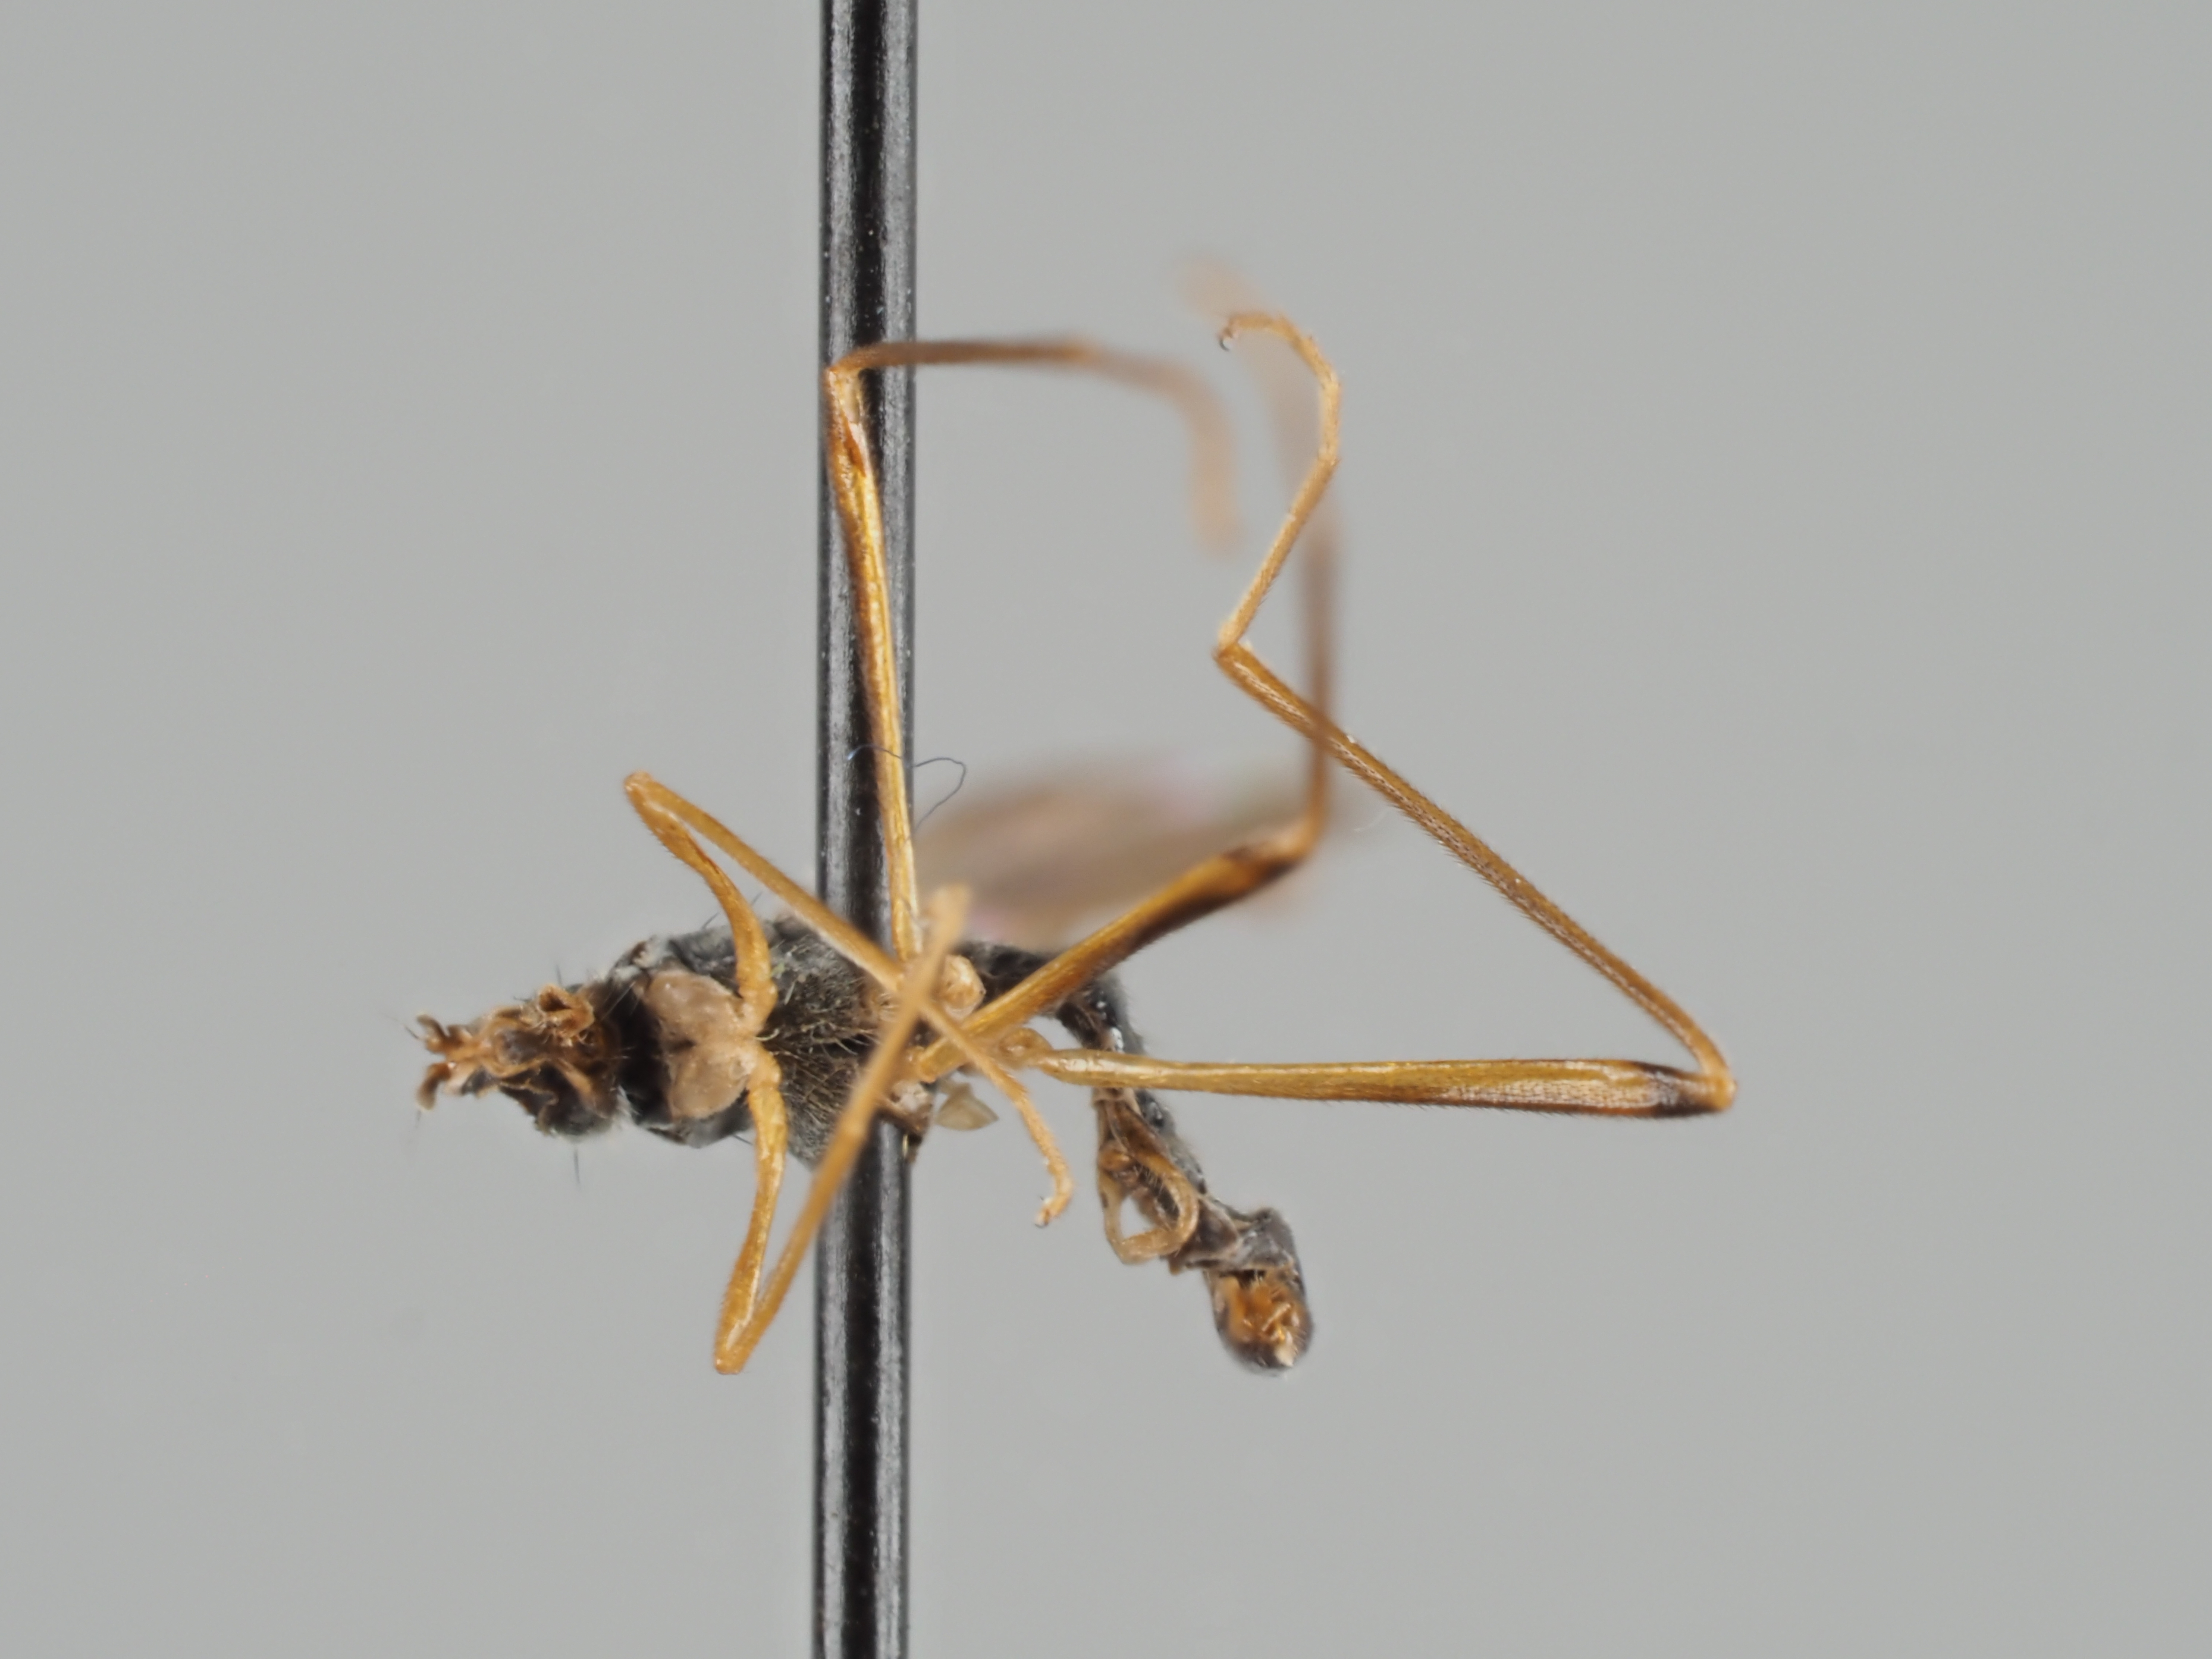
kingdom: Animalia
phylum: Arthropoda
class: Insecta
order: Diptera
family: Micropezidae
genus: Compsobata
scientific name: Compsobata nigricornis
